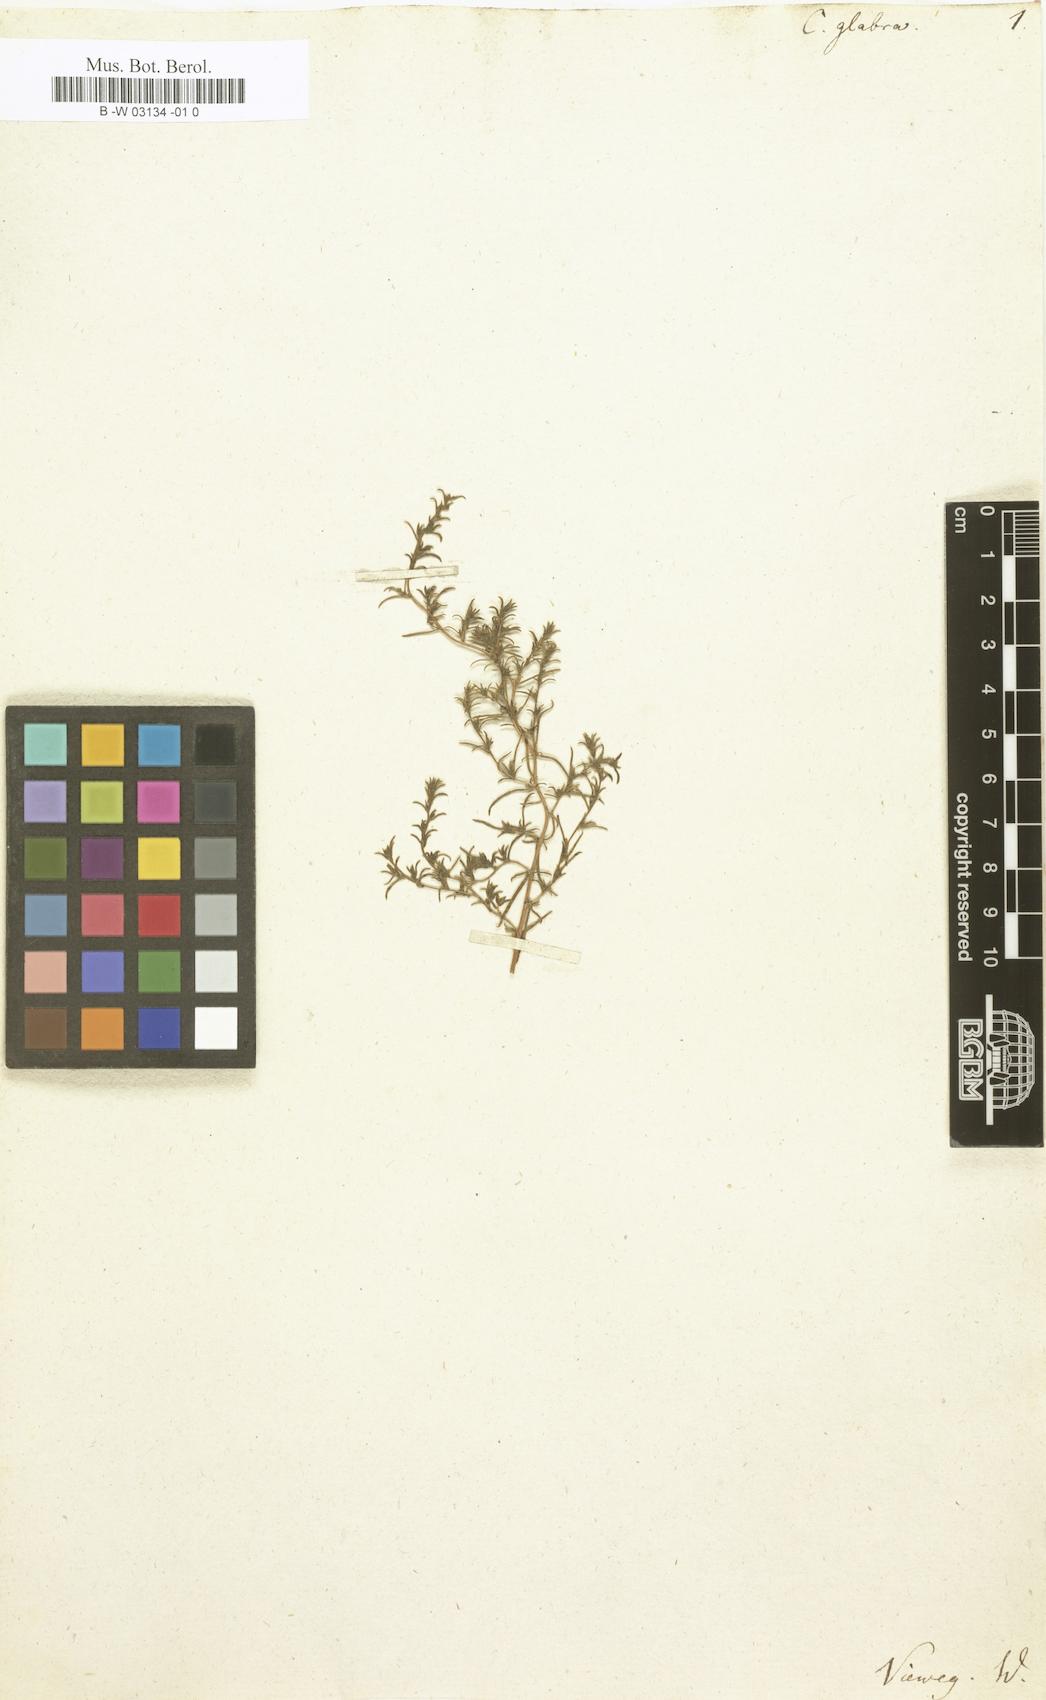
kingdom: Plantae
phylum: Tracheophyta
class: Magnoliopsida
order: Caryophyllales
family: Amaranthaceae
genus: Camphorosma
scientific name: Camphorosma monspeliaca
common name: Camphorfume
